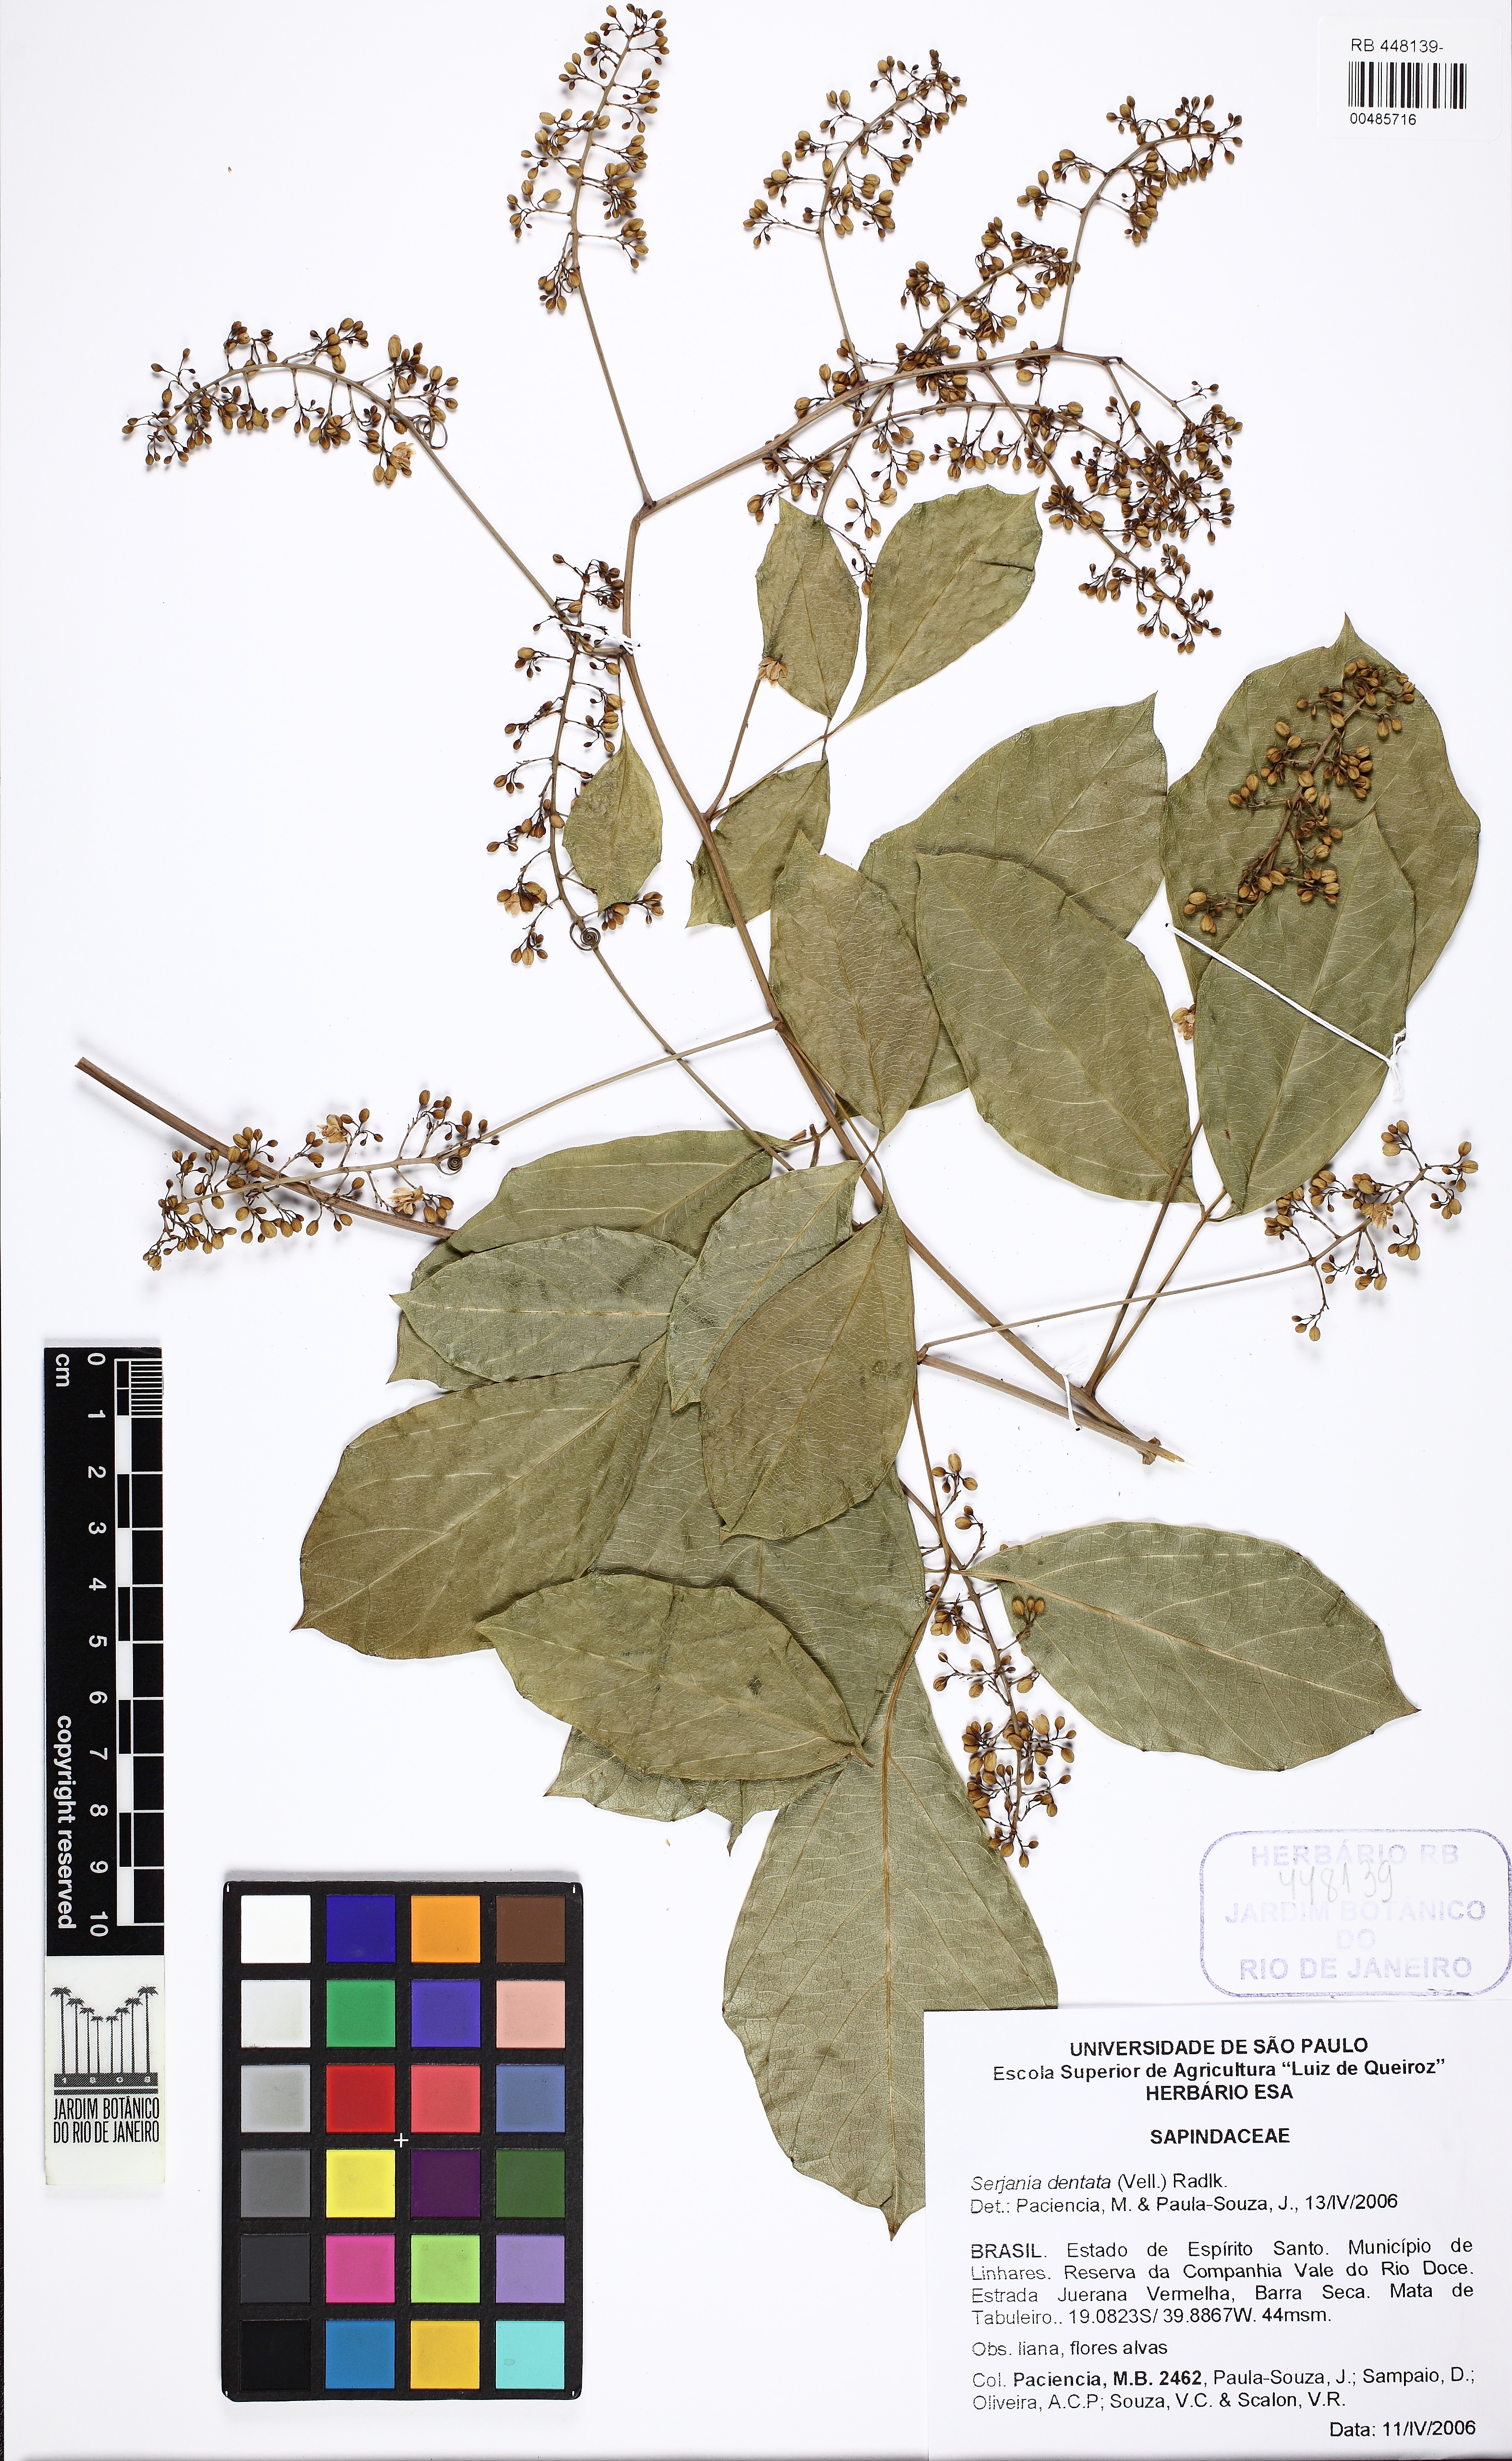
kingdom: Plantae
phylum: Tracheophyta
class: Magnoliopsida
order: Sapindales
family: Sapindaceae
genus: Serjania
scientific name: Serjania dentata
